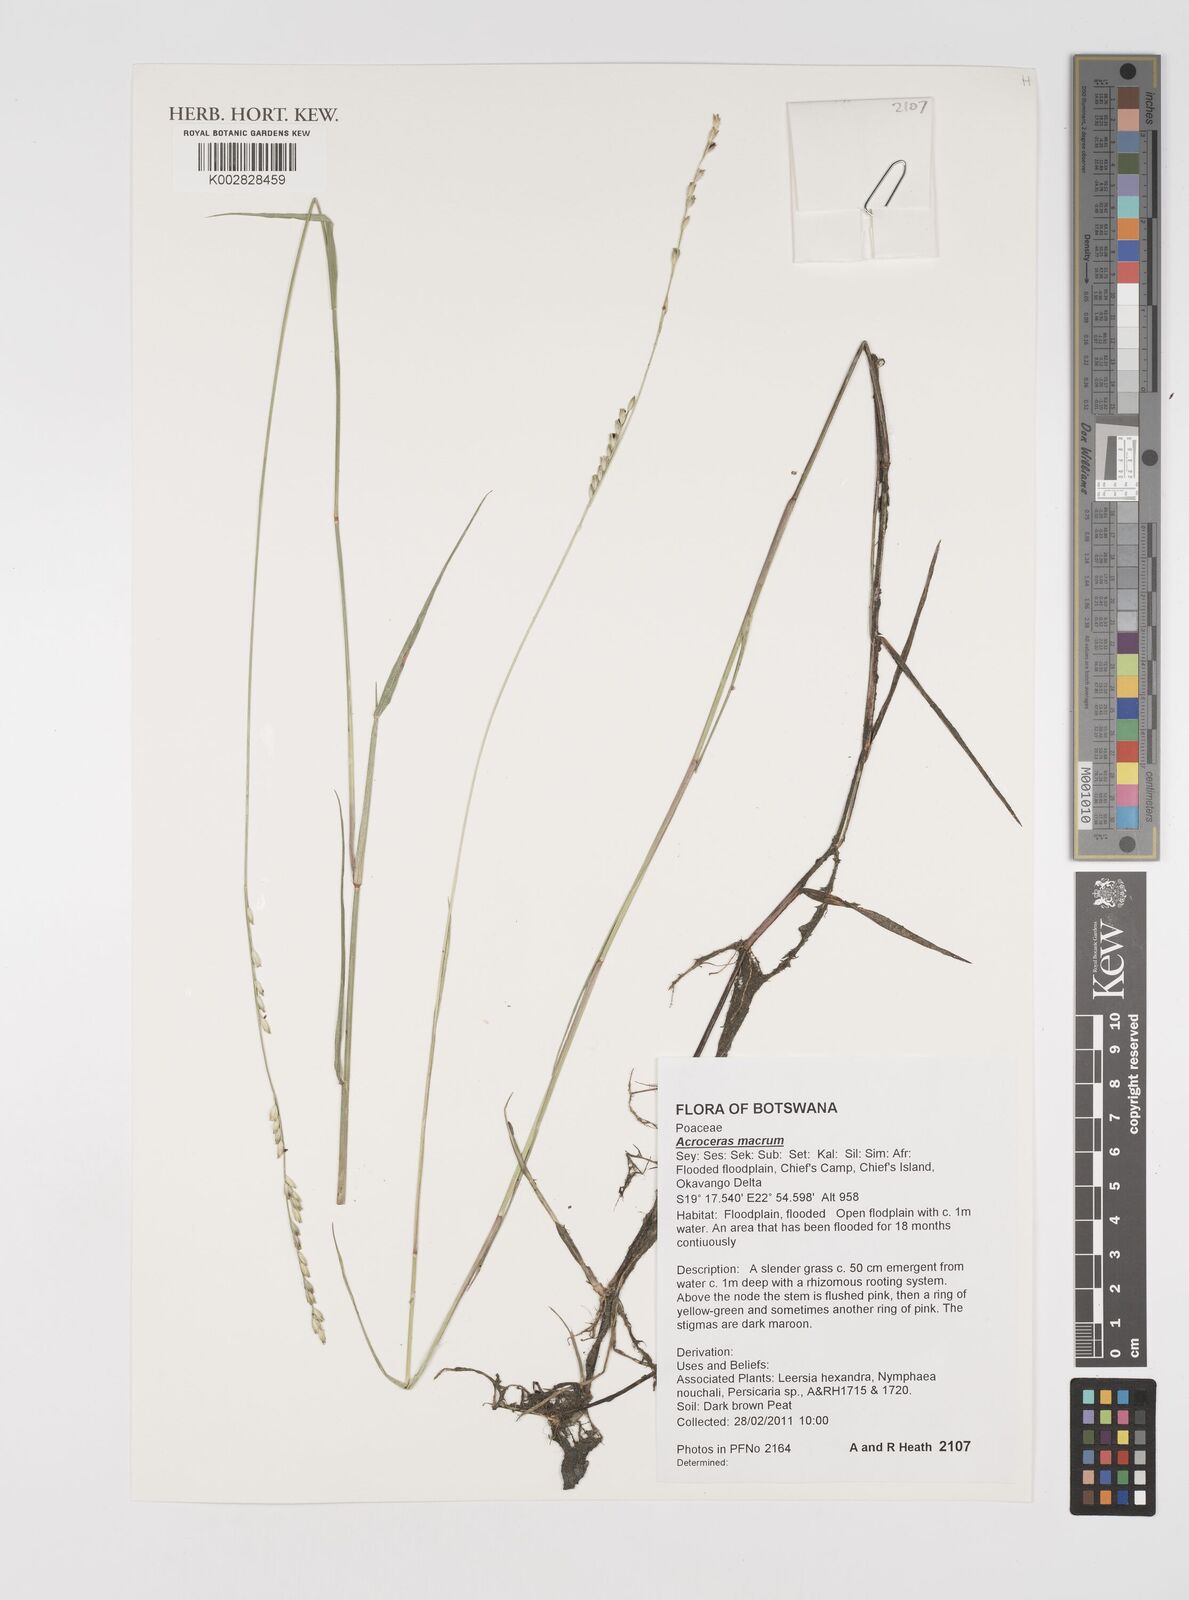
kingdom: Plantae
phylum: Tracheophyta
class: Liliopsida
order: Poales
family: Poaceae
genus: Acroceras
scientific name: Acroceras macrum
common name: Nyl grass
